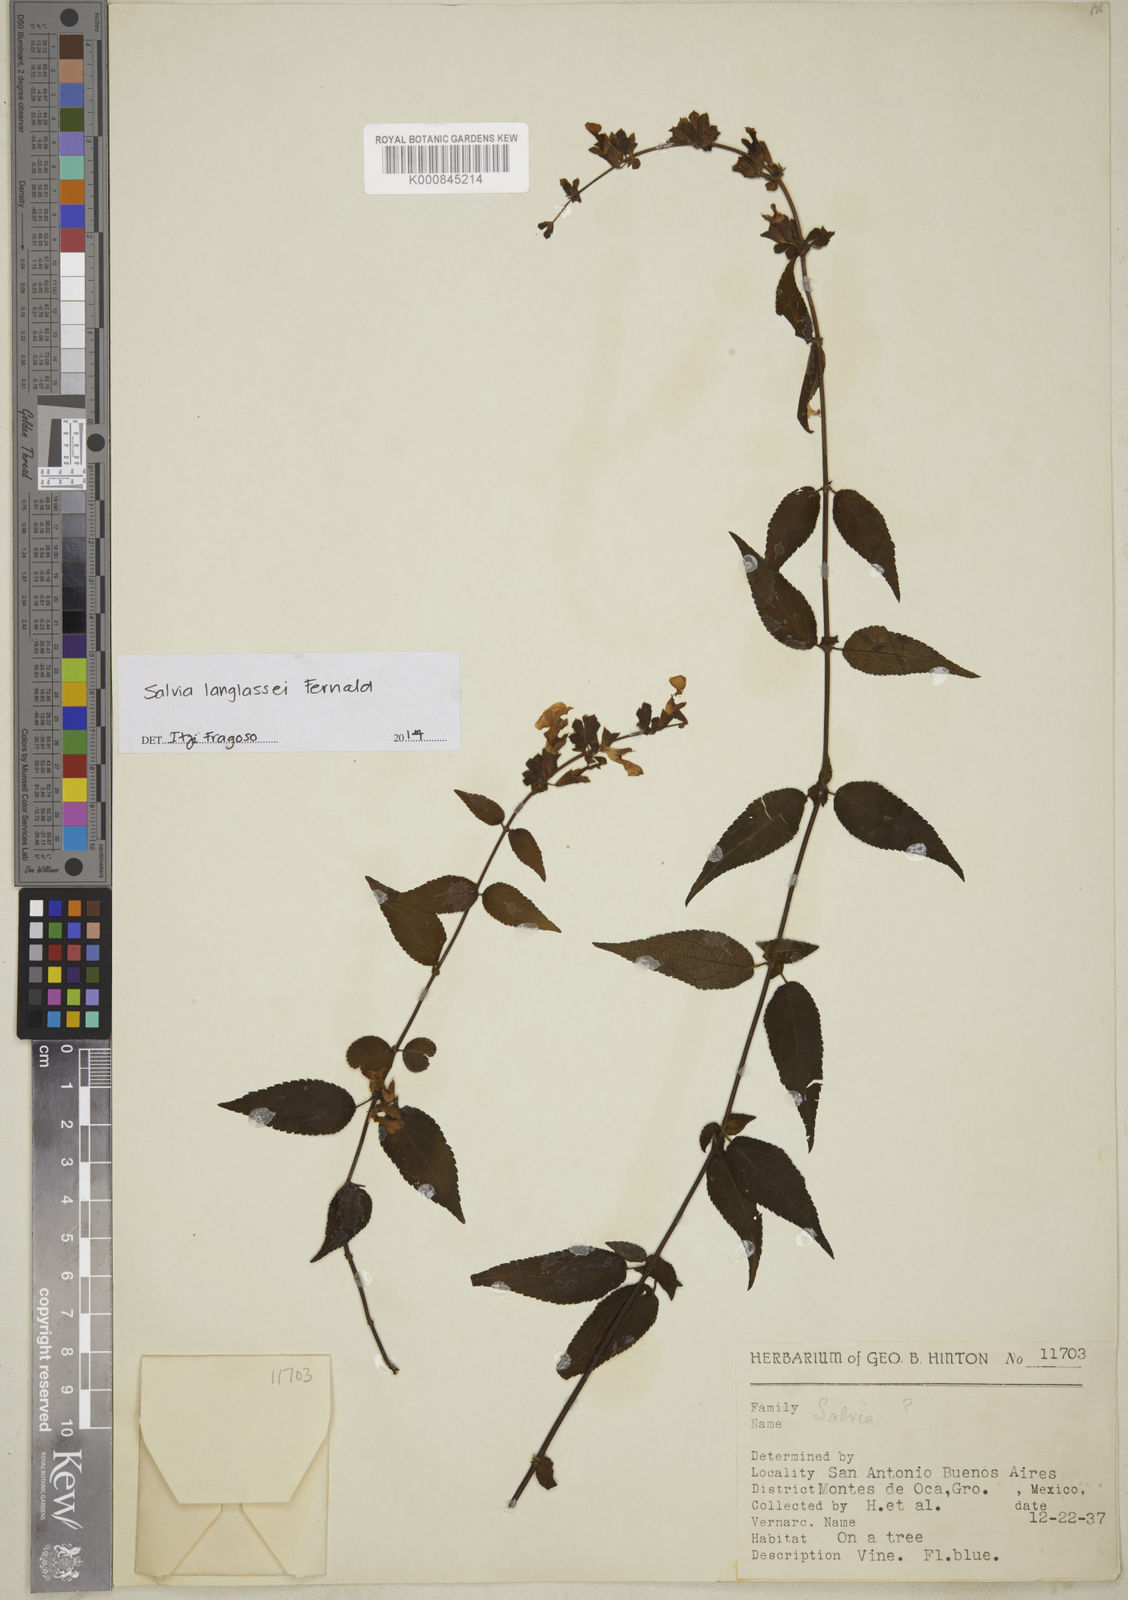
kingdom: Plantae
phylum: Tracheophyta
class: Magnoliopsida
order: Lamiales
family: Lamiaceae
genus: Salvia
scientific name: Salvia langlassei
